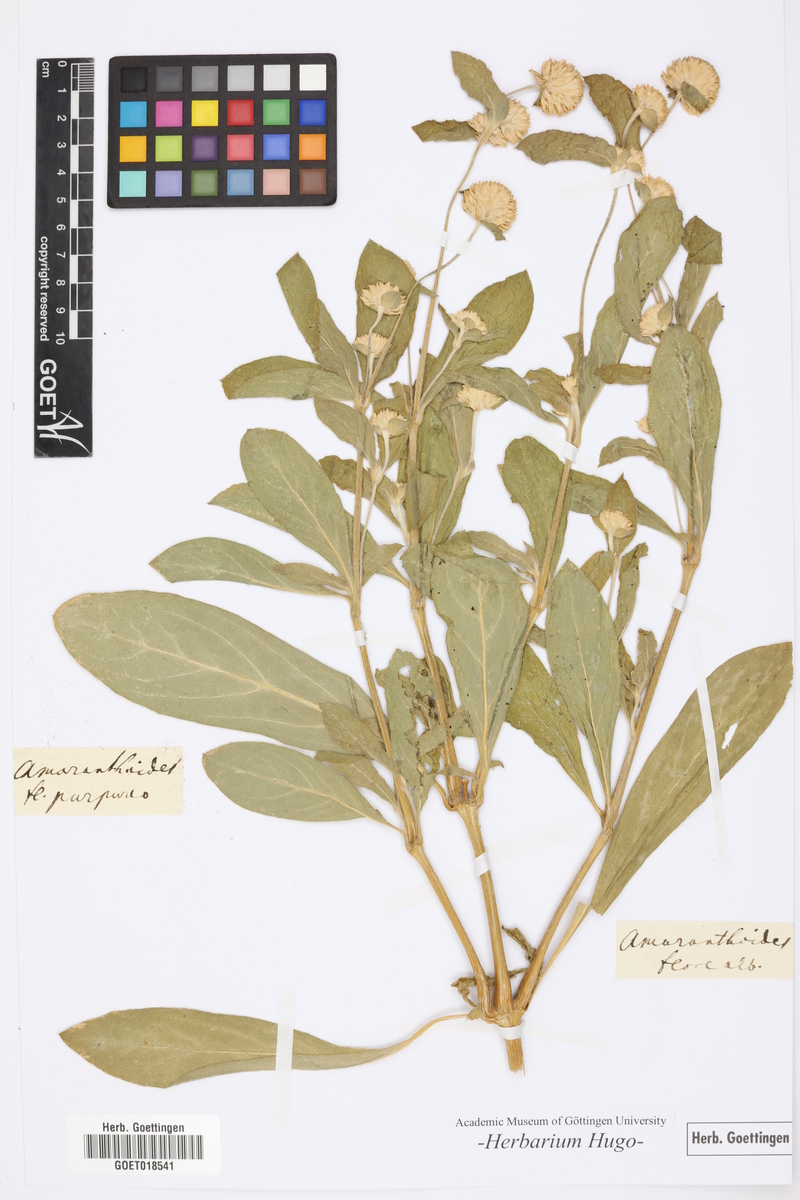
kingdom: Plantae
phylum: Tracheophyta
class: Magnoliopsida
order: Caryophyllales
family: Amaranthaceae
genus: Gomphrena
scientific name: Gomphrena
